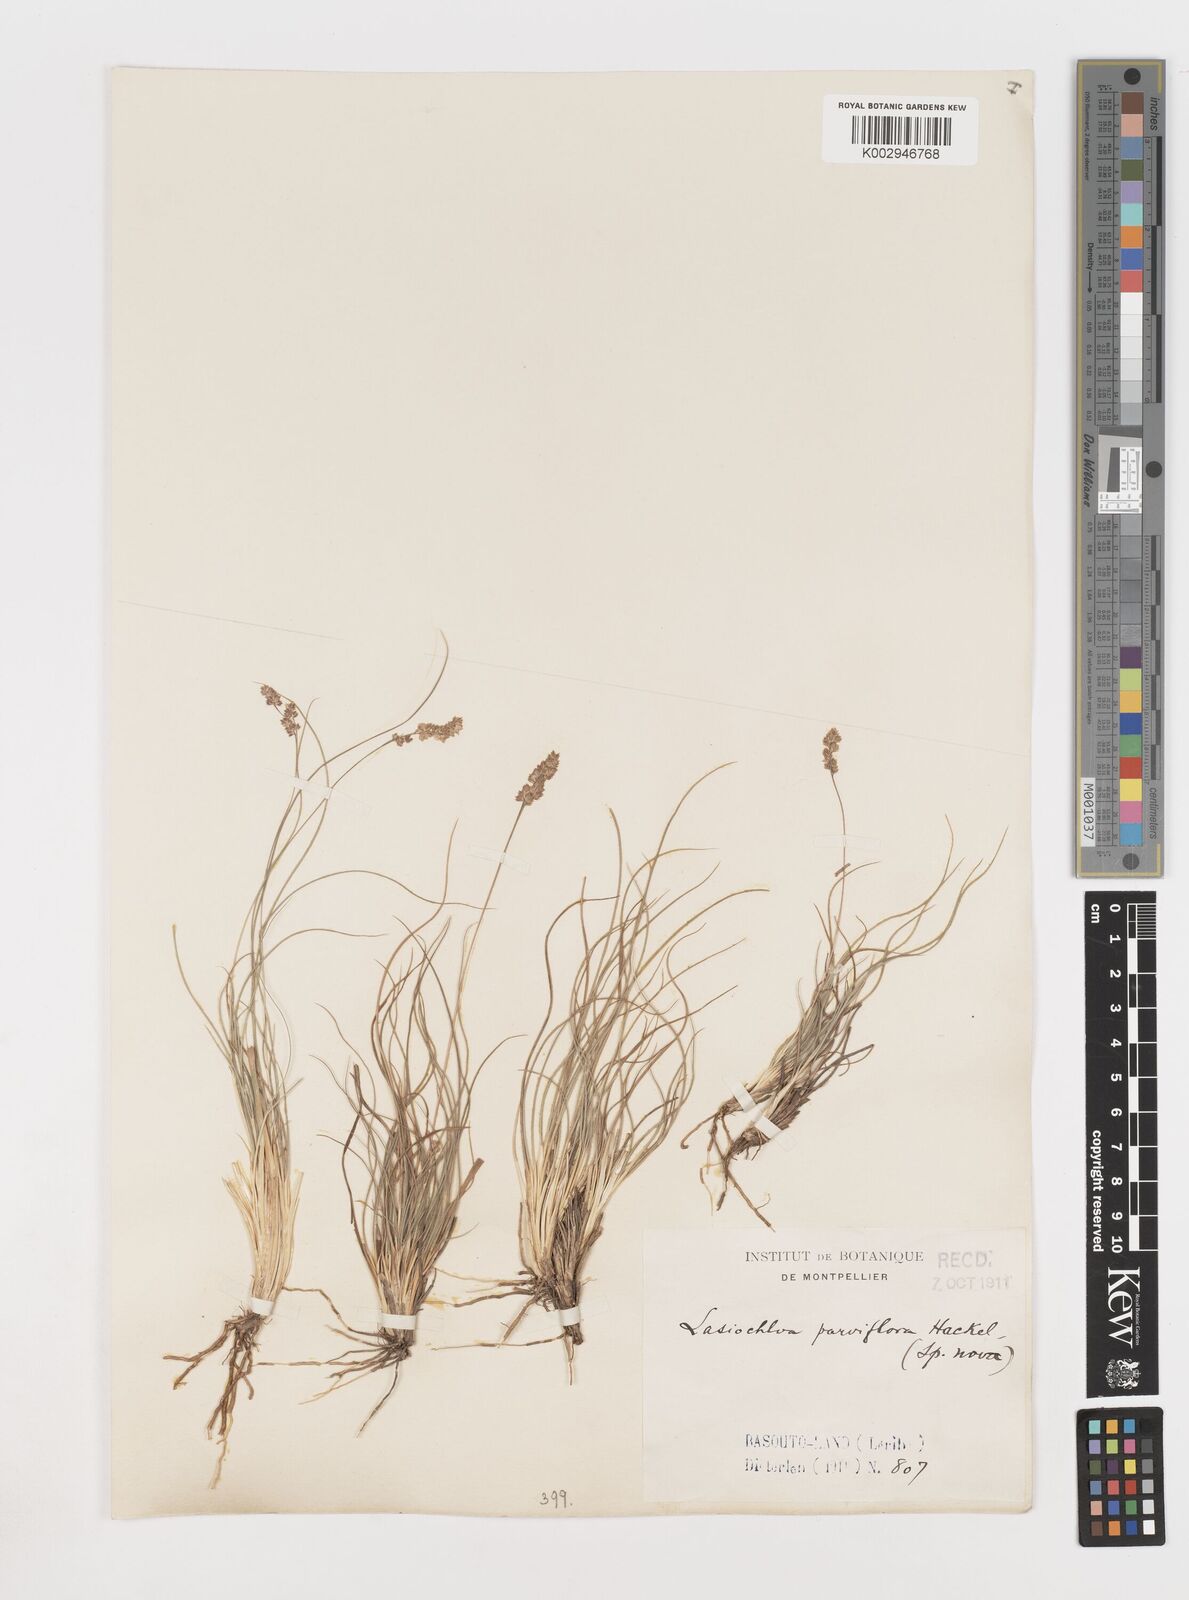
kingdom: Plantae
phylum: Tracheophyta
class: Liliopsida
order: Poales
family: Poaceae
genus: Stiburus
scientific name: Stiburus conrathii
